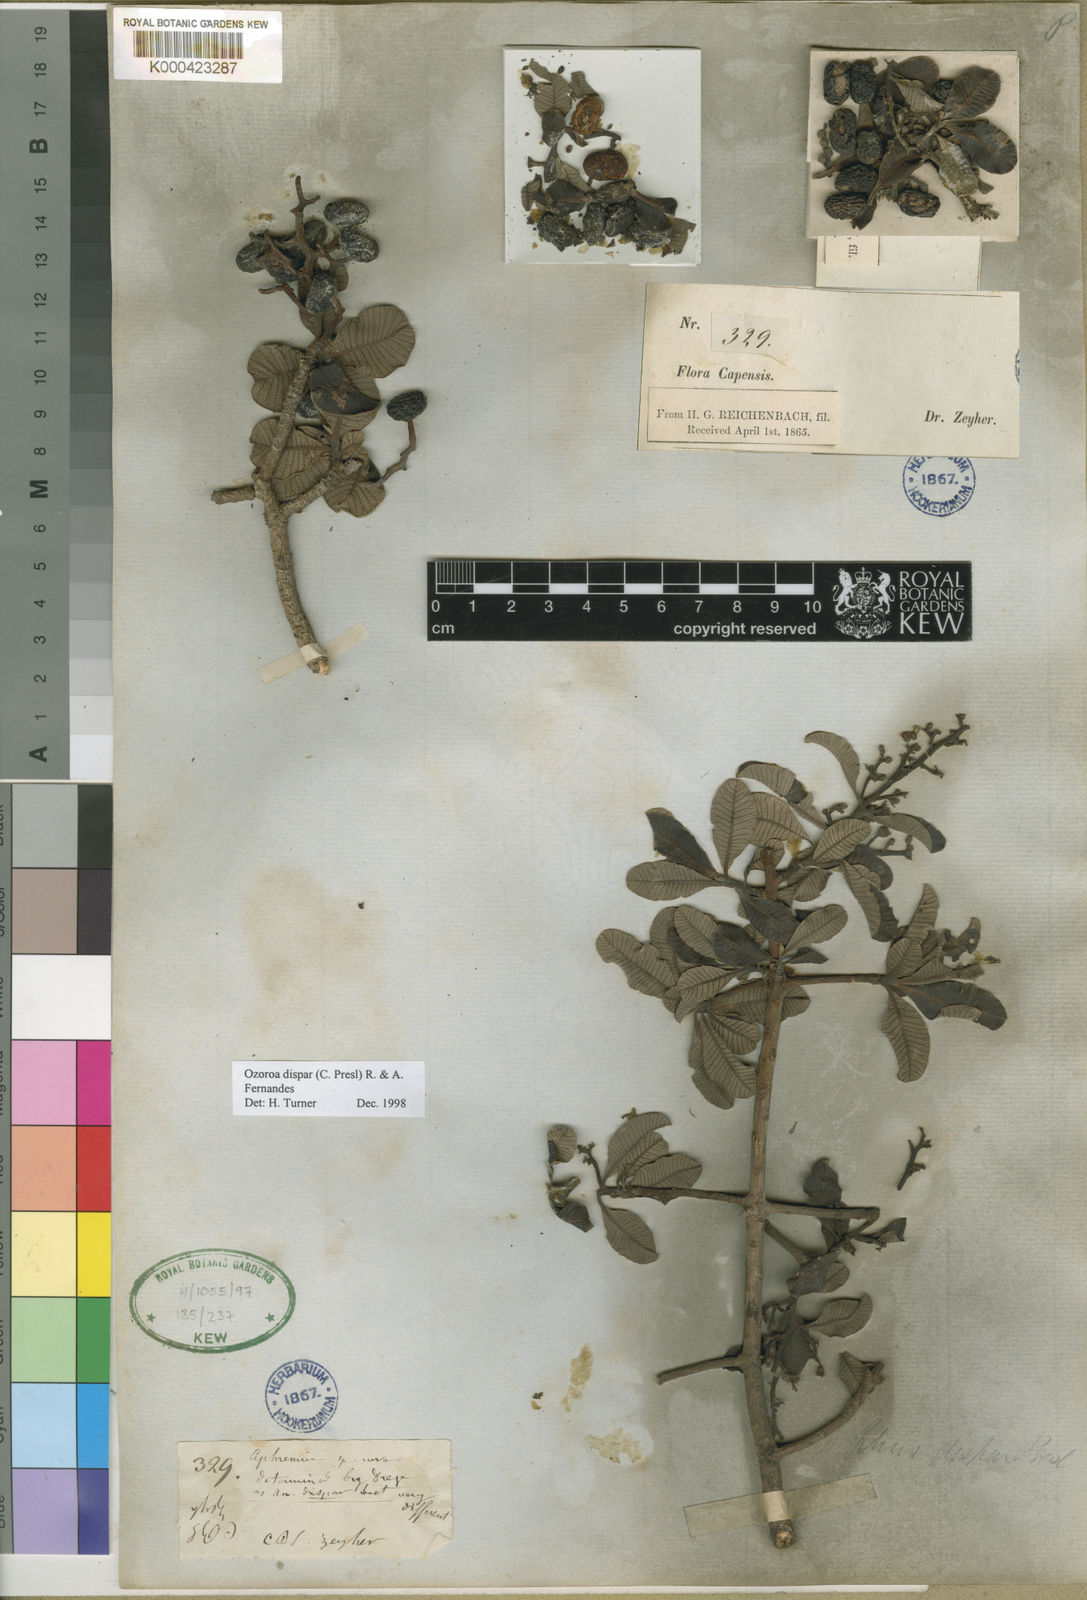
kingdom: Plantae
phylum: Tracheophyta
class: Magnoliopsida
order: Sapindales
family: Anacardiaceae
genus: Ozoroa
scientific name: Ozoroa dispar
